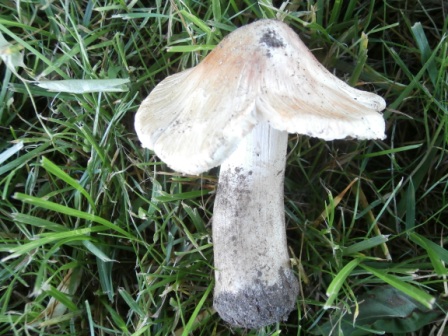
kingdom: Fungi
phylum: Basidiomycota
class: Agaricomycetes
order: Agaricales
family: Inocybaceae
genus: Inosperma
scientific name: Inosperma erubescens
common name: giftig trævlhat
